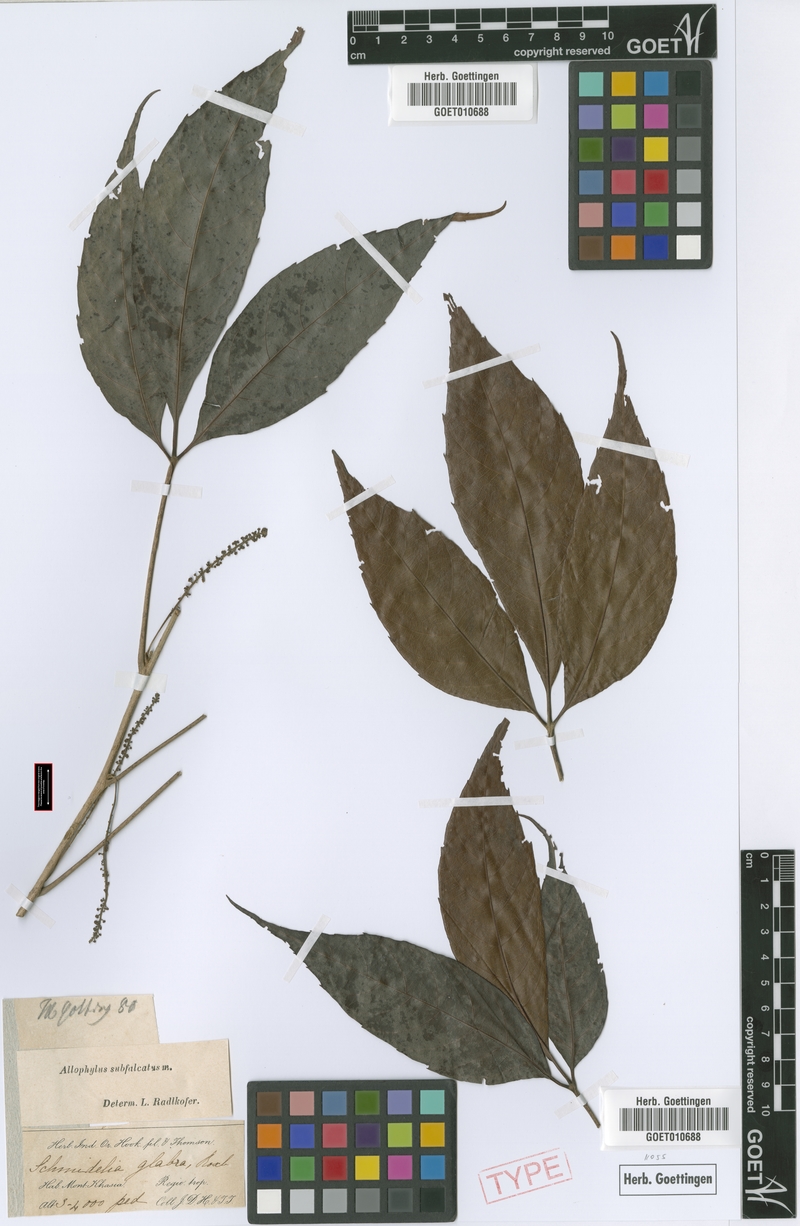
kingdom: Plantae
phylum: Tracheophyta
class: Magnoliopsida
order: Sapindales
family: Sapindaceae
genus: Allophylus
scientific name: Allophylus subfalcatus
